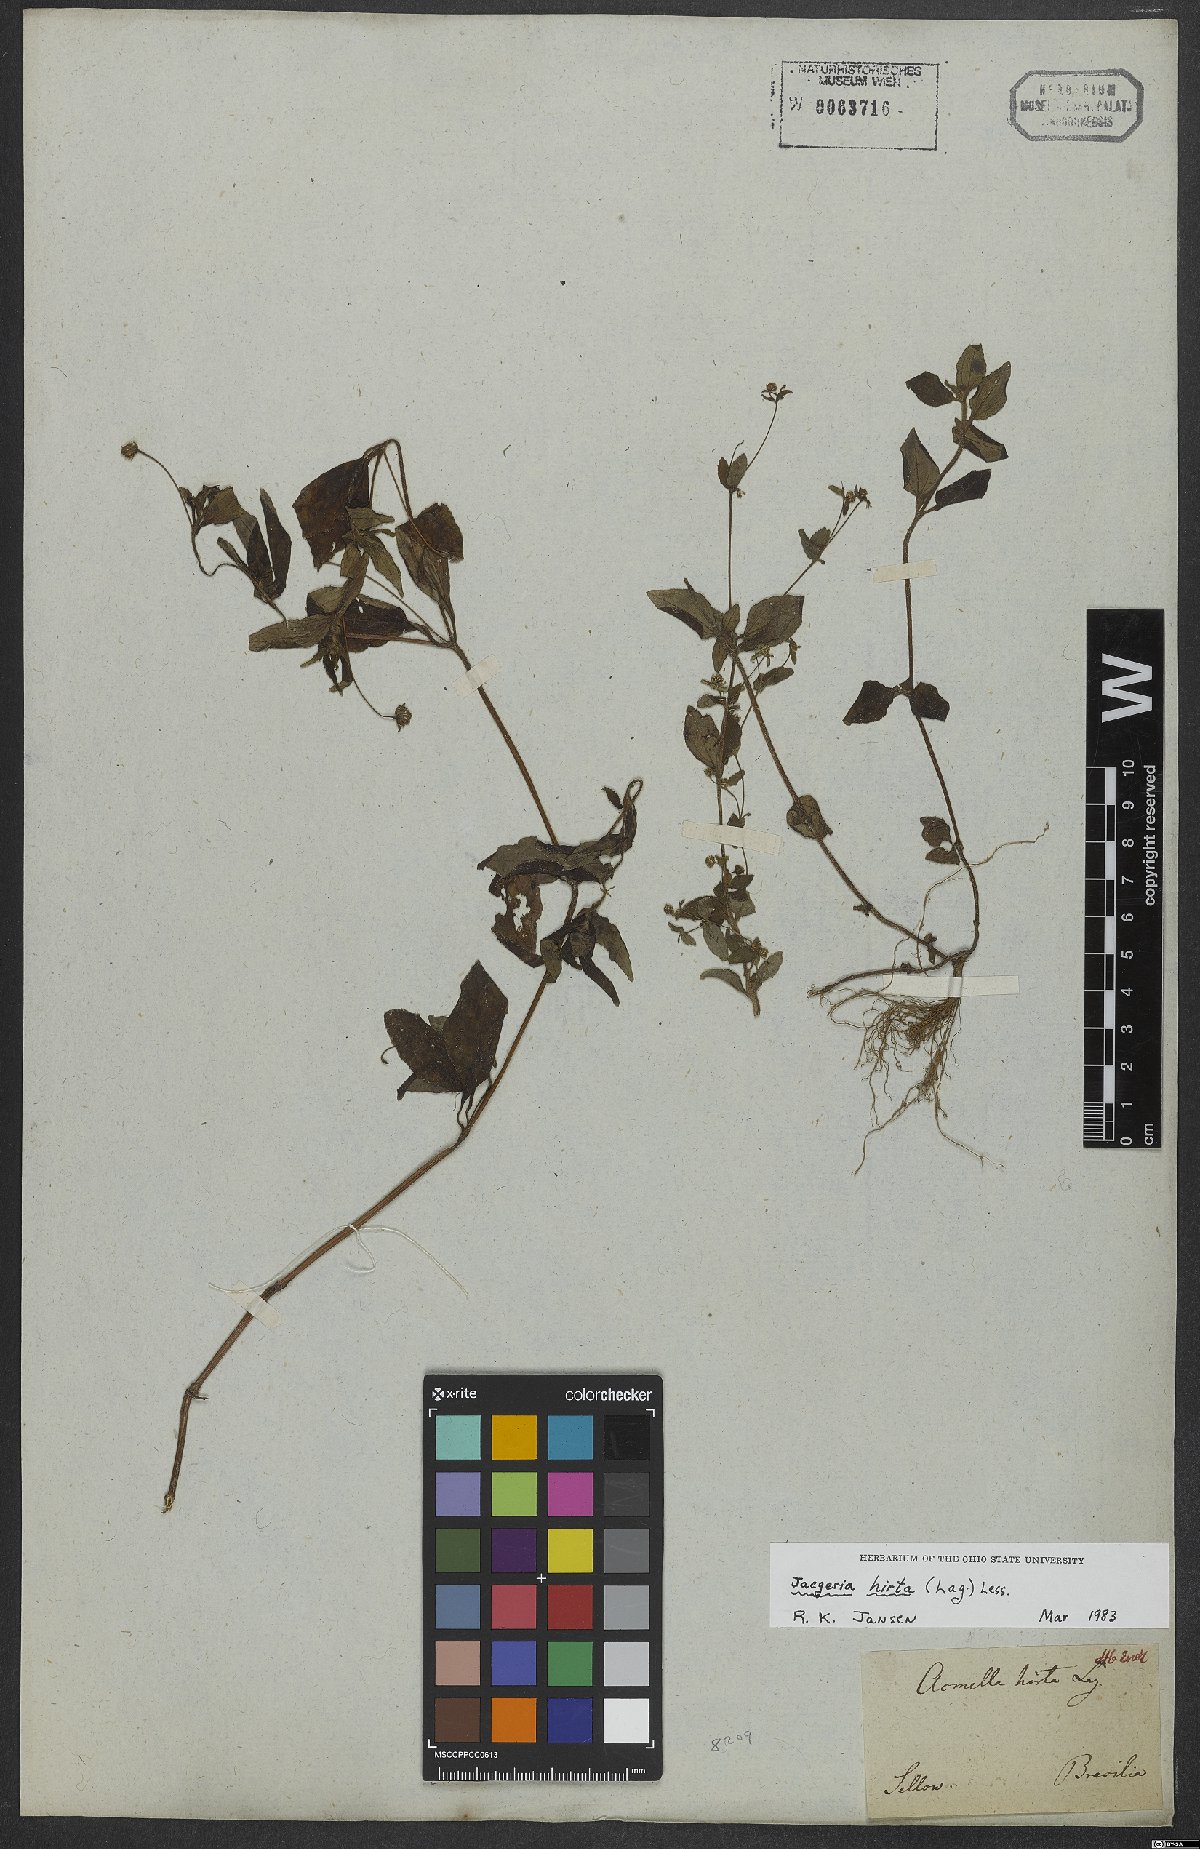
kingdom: Plantae
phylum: Tracheophyta
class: Magnoliopsida
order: Asterales
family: Asteraceae
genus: Jaegeria
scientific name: Jaegeria hirta
